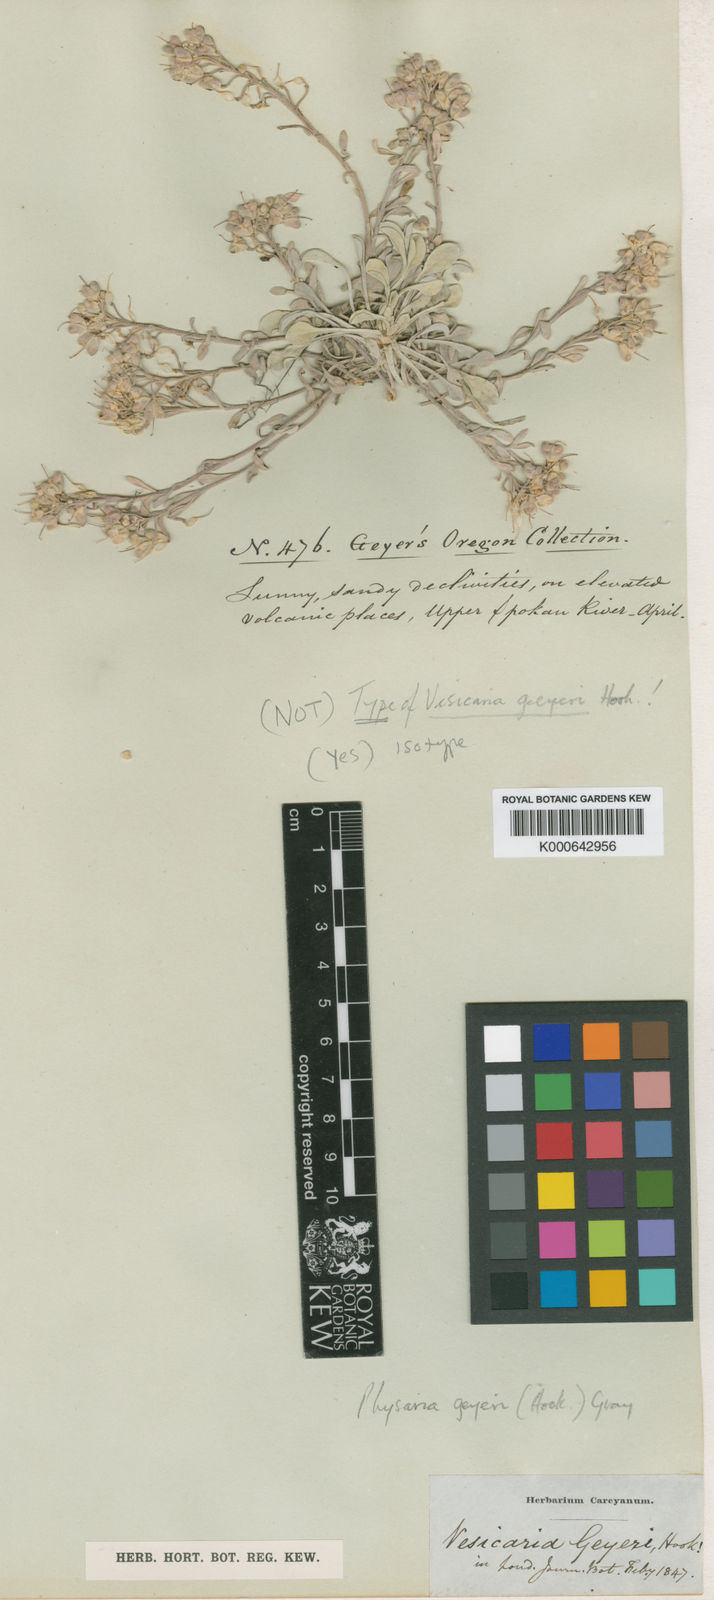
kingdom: Plantae
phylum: Tracheophyta
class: Magnoliopsida
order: Brassicales
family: Brassicaceae
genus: Physaria
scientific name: Physaria geyeri
